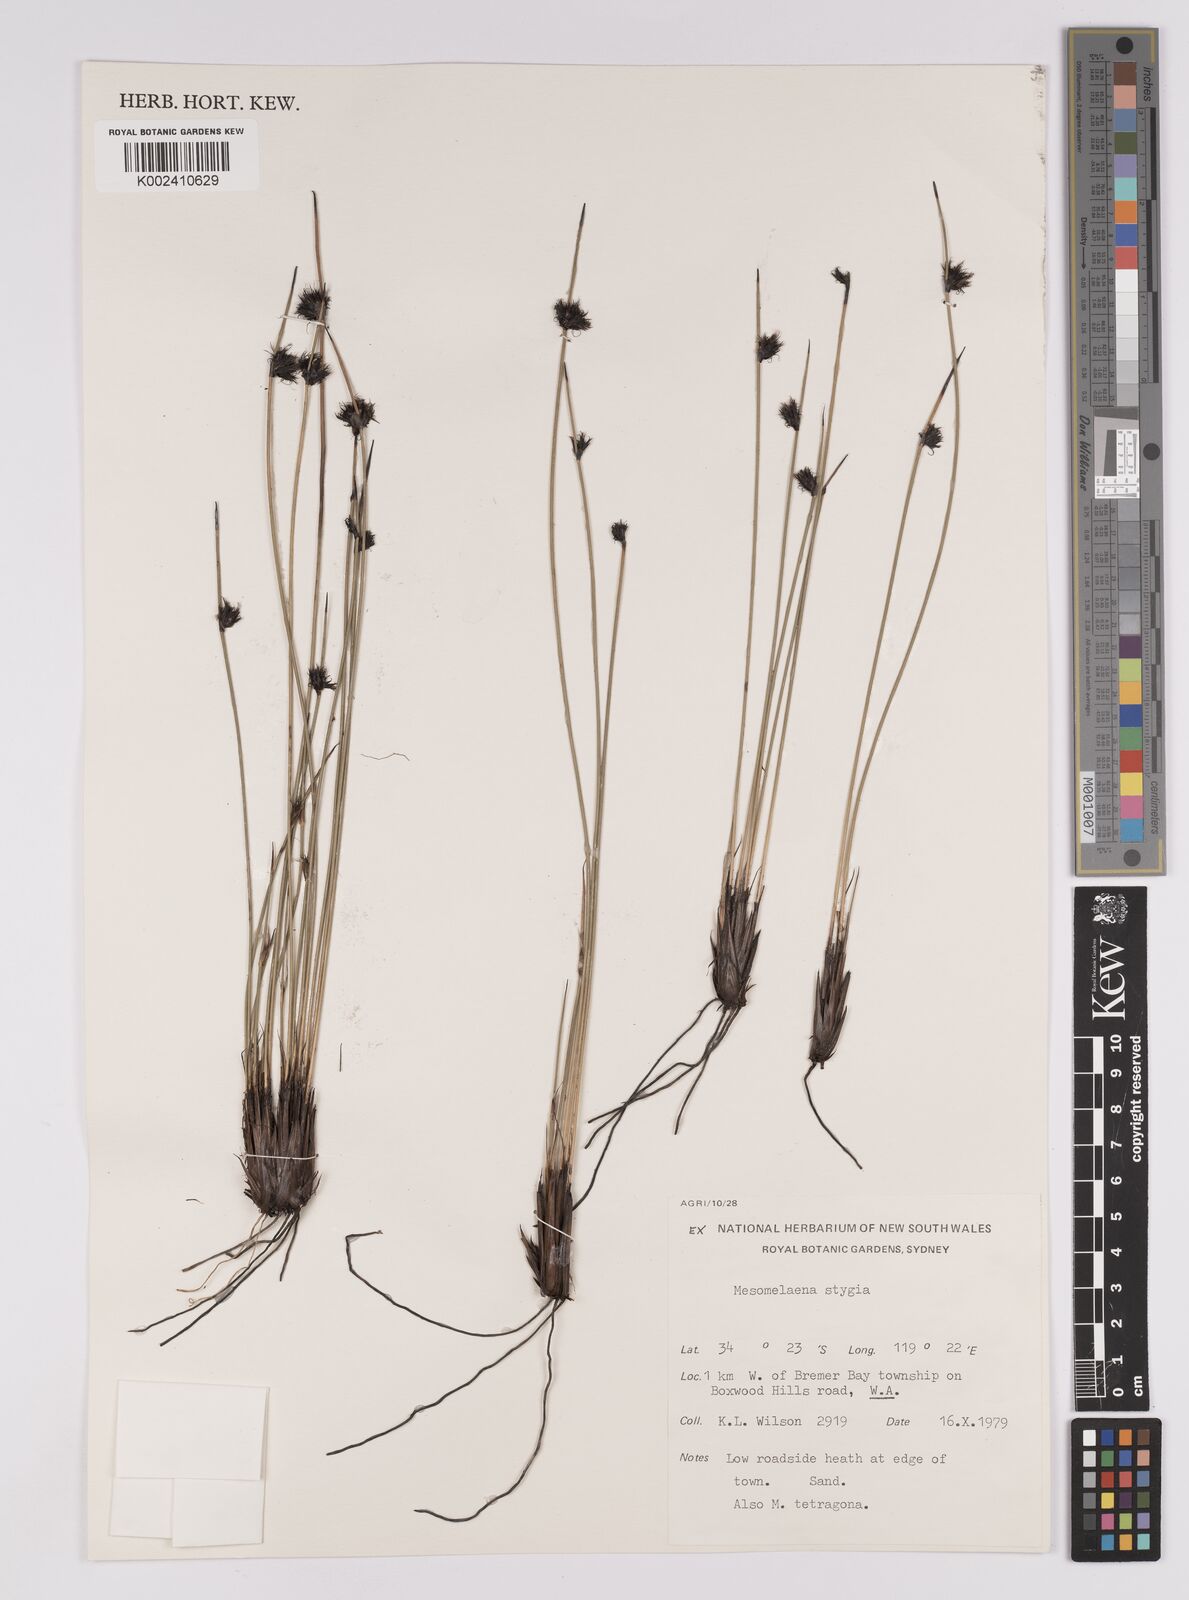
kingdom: Plantae
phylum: Tracheophyta
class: Liliopsida
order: Poales
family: Cyperaceae
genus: Mesomelaena
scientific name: Mesomelaena stygia
